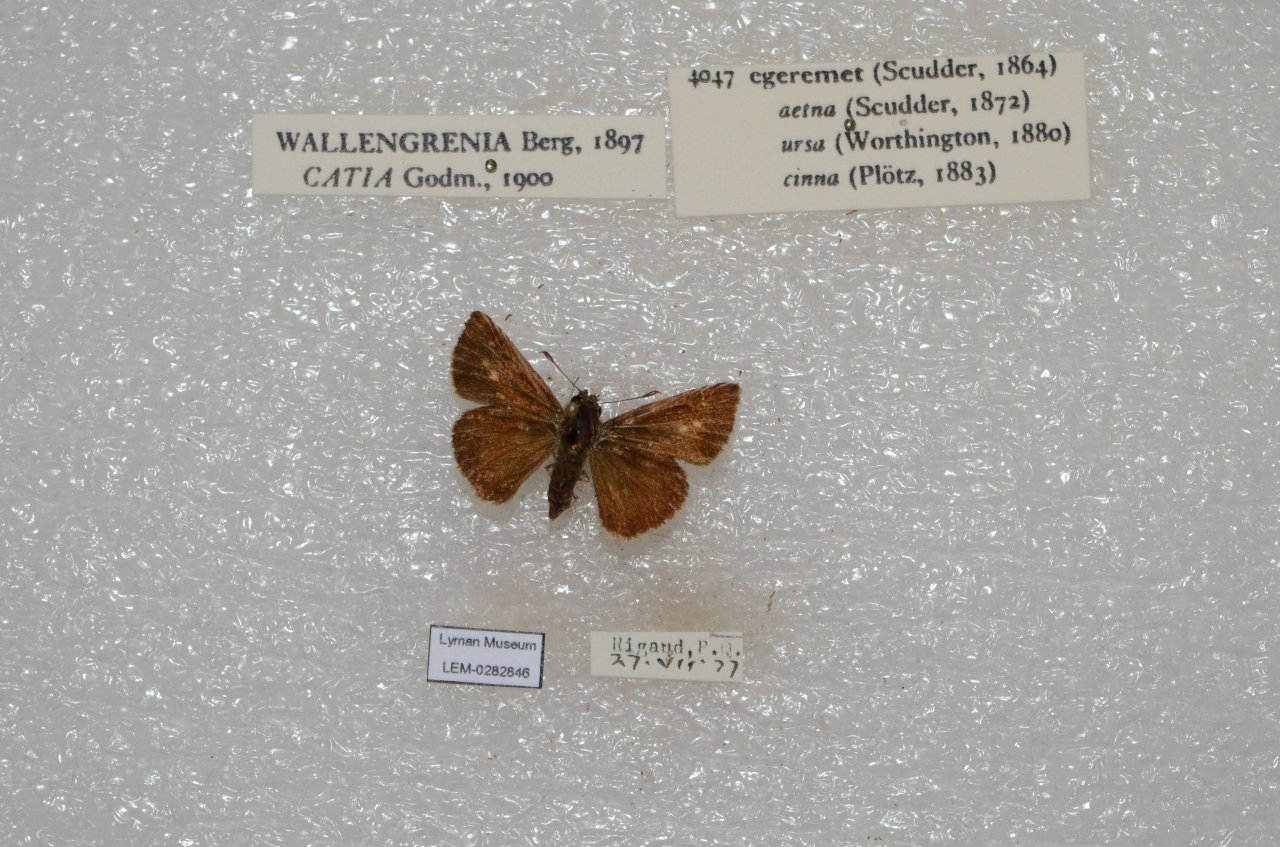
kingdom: Animalia
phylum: Arthropoda
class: Insecta
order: Lepidoptera
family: Hesperiidae
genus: Polites
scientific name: Polites egeremet
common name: Northern Broken-Dash
